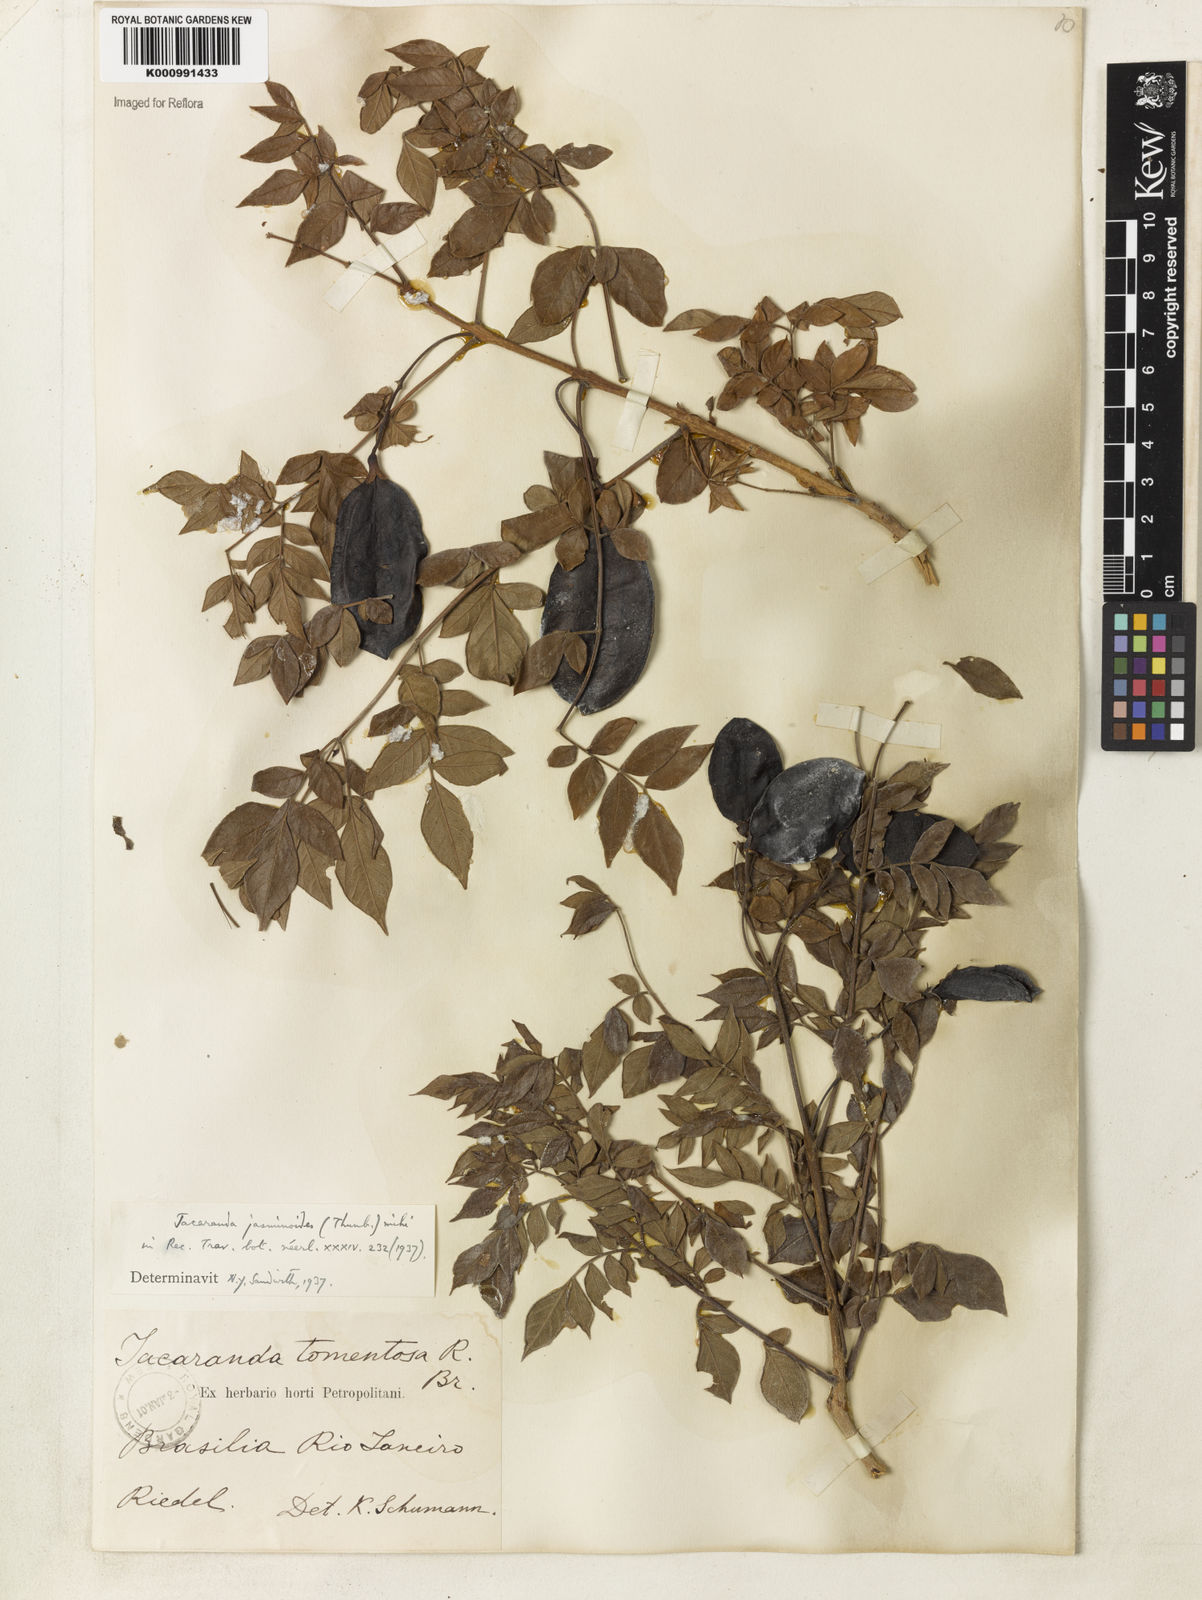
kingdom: Plantae
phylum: Tracheophyta
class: Magnoliopsida
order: Lamiales
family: Bignoniaceae
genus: Jacaranda
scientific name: Jacaranda jasminoides
